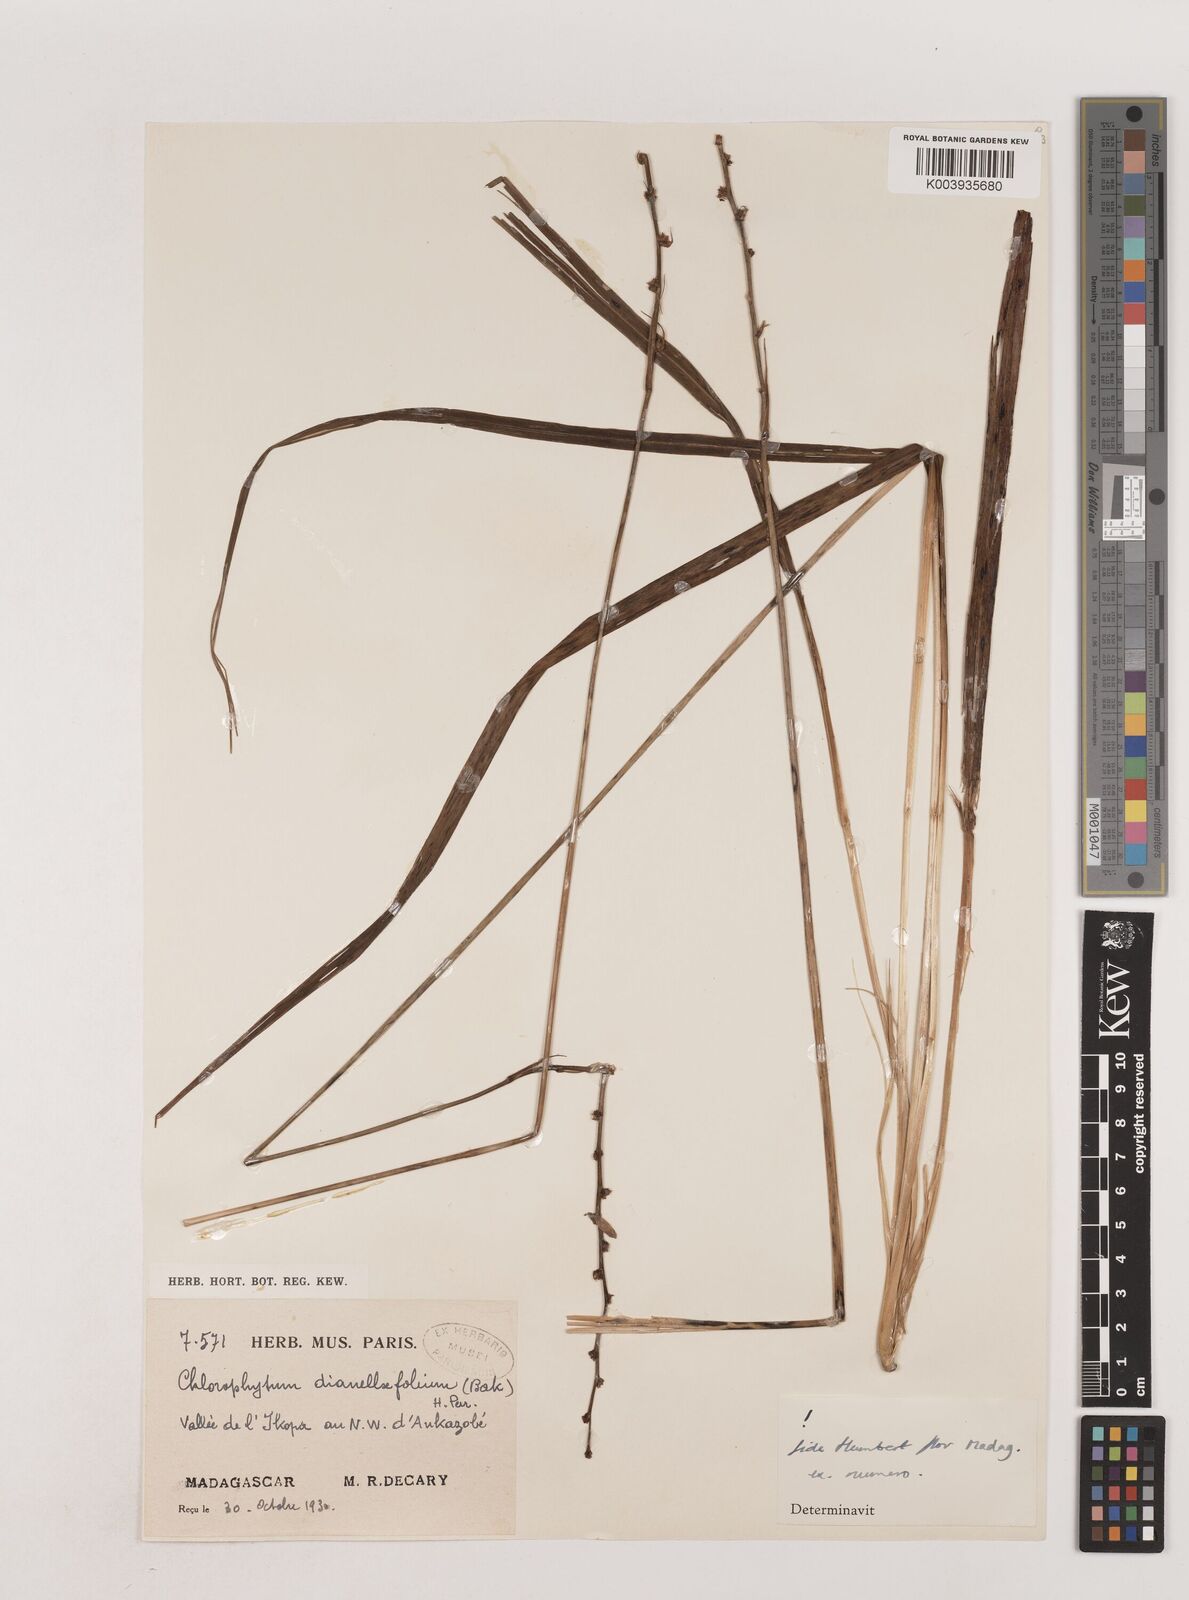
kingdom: Plantae
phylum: Tracheophyta
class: Liliopsida
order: Asparagales
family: Asparagaceae
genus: Chlorophytum
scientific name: Chlorophytum dianellifolium
